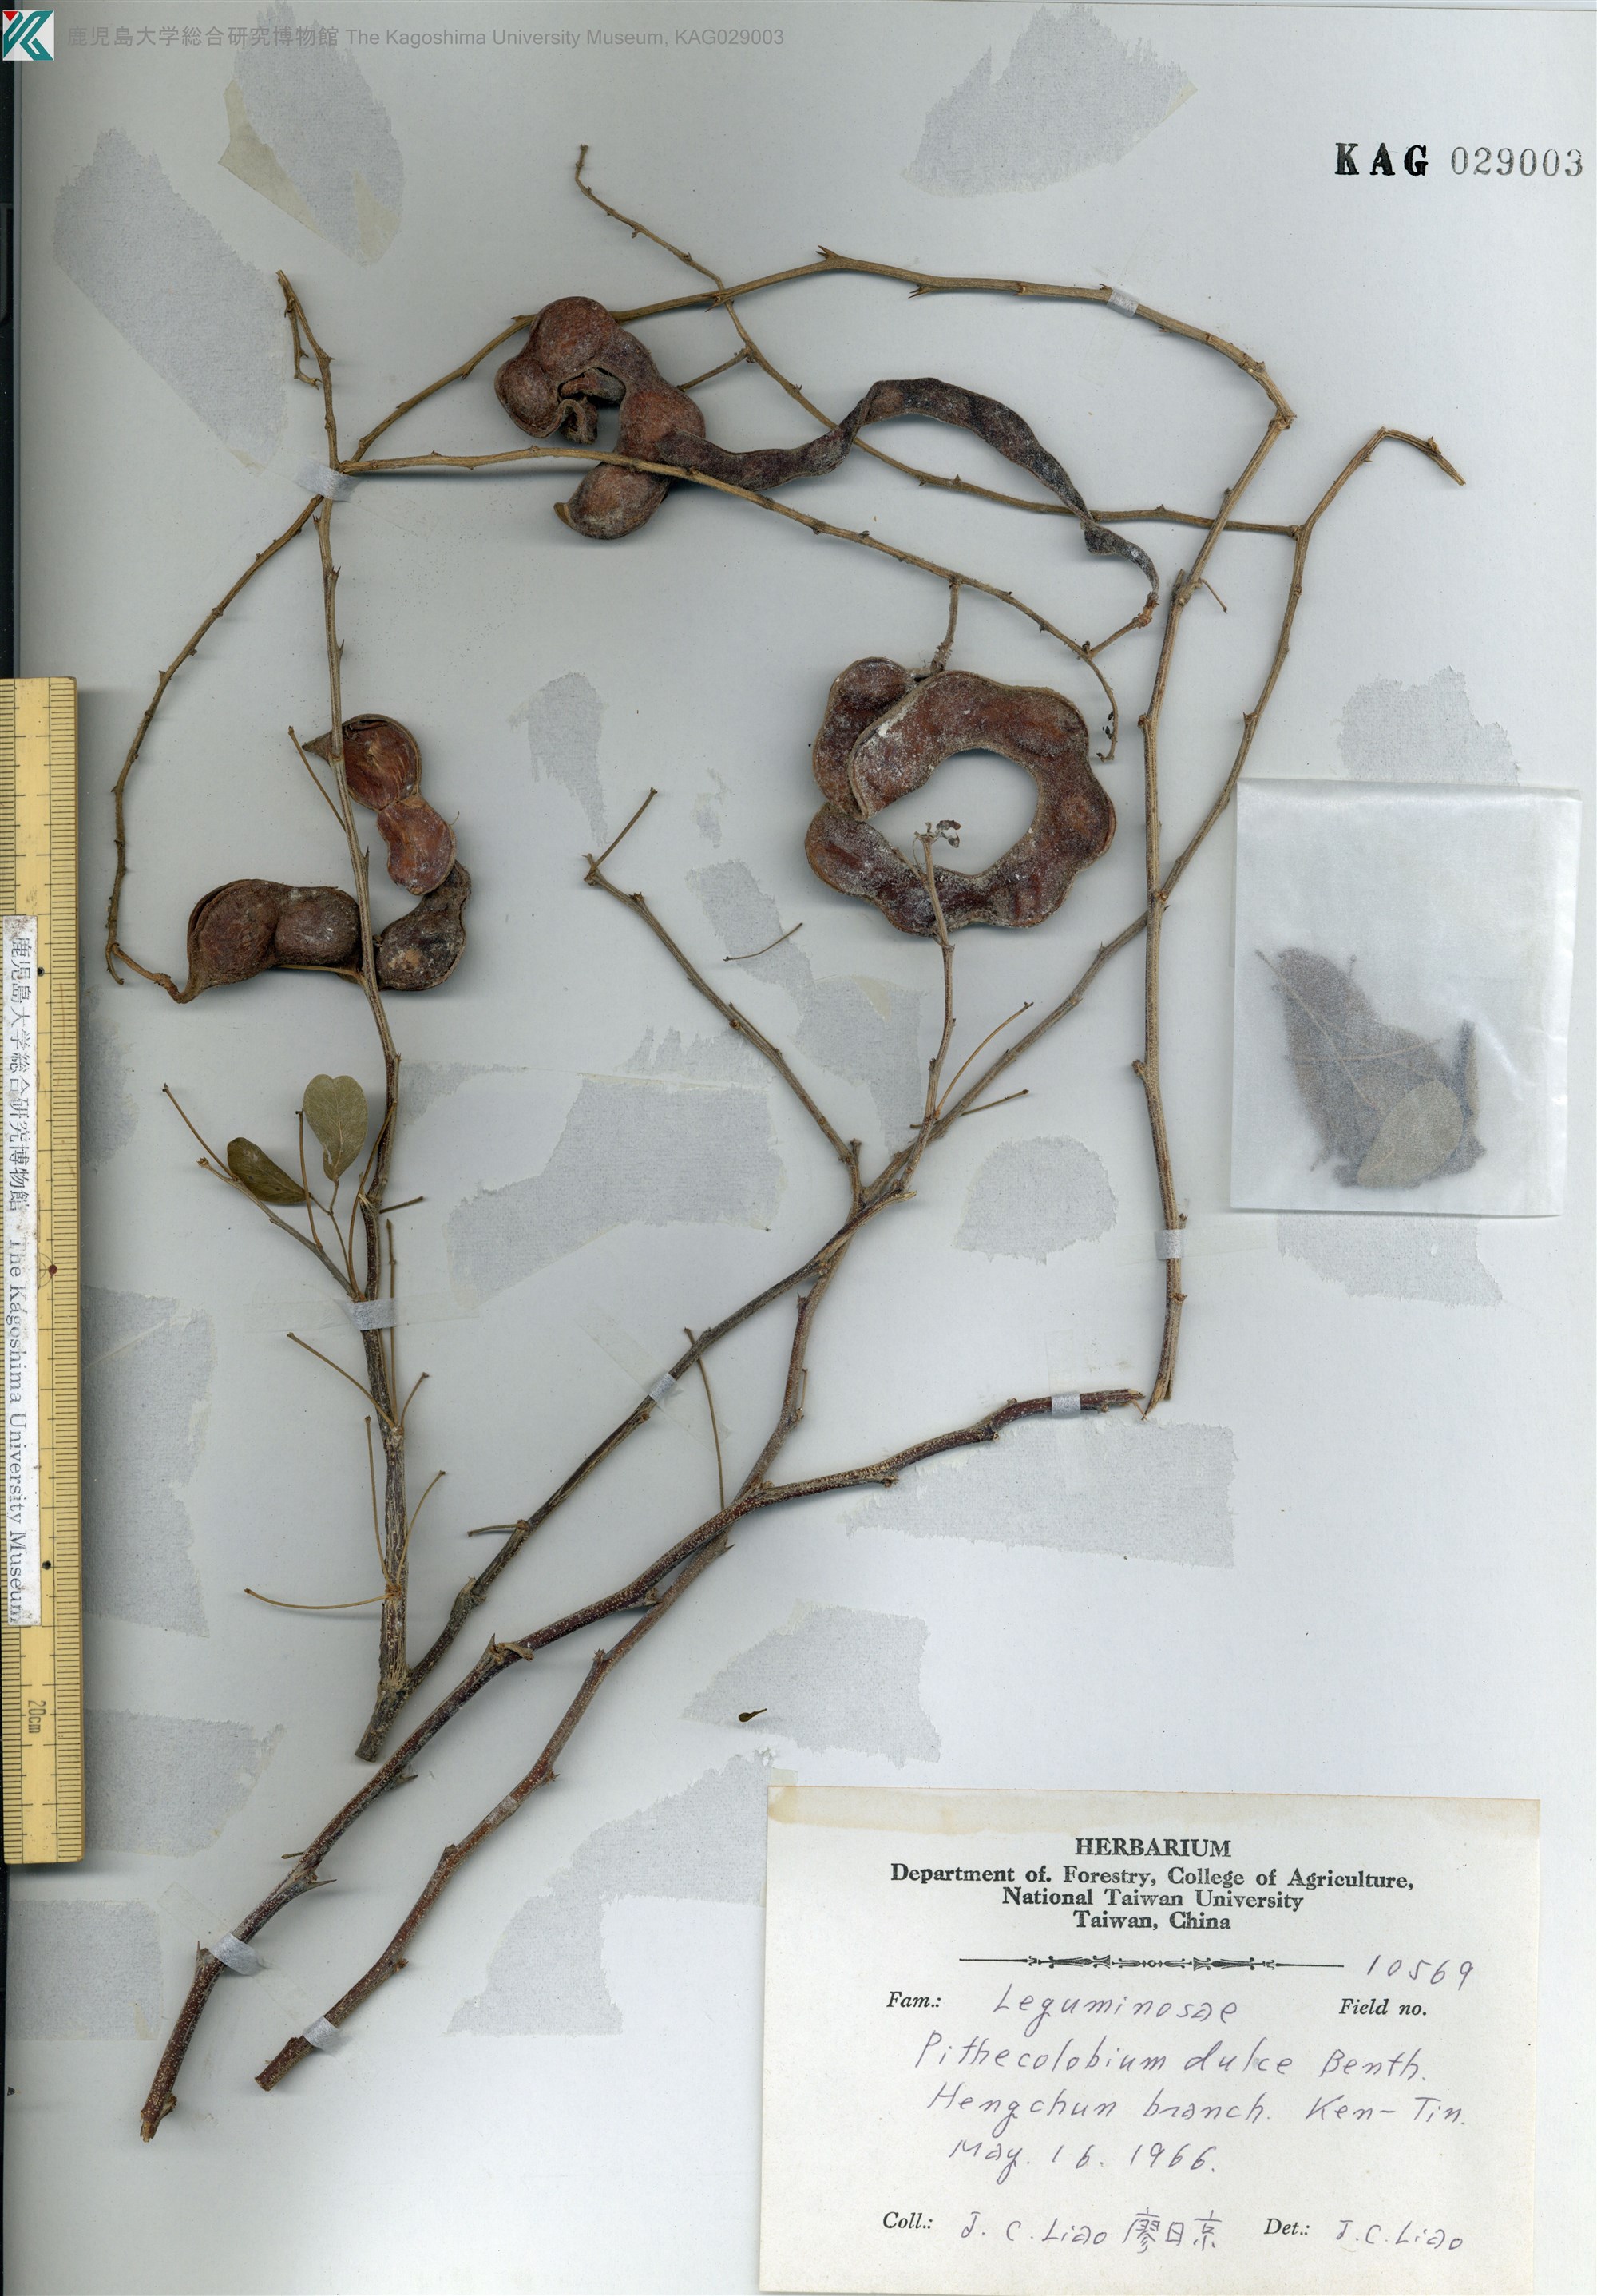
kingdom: Plantae
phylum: Tracheophyta
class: Magnoliopsida
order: Fabales
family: Fabaceae
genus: Pithecellobium
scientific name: Pithecellobium dulce
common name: Monkeypod
